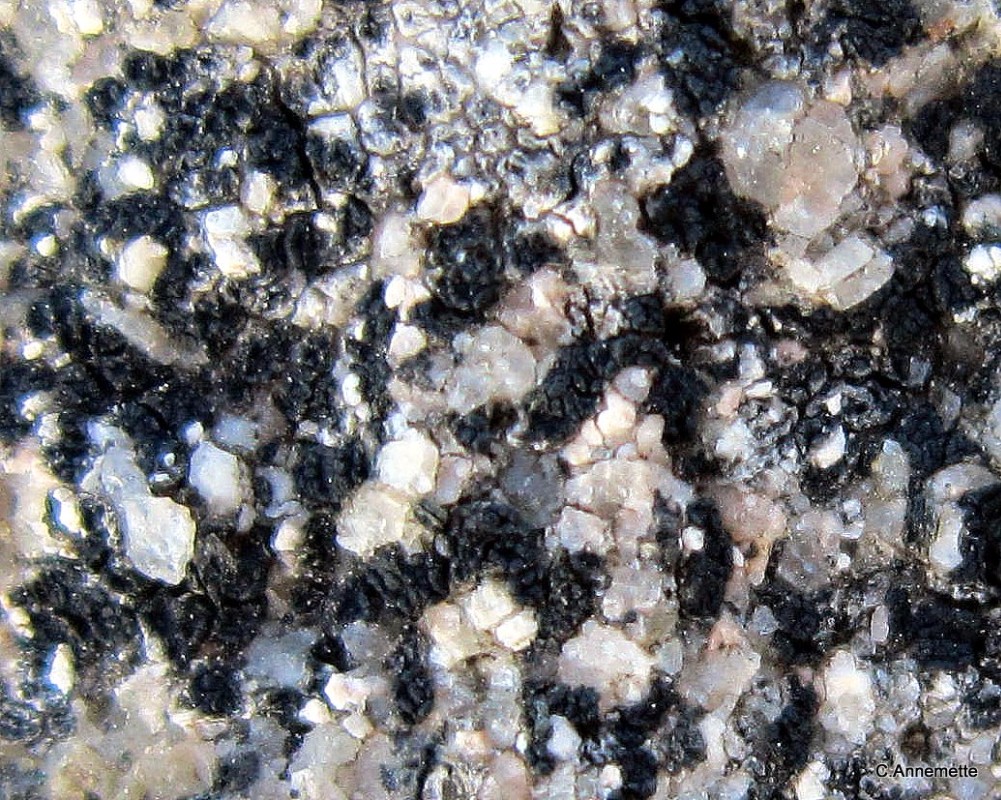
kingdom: Fungi
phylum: Ascomycota
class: Lecanoromycetes
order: Acarosporales
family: Acarosporaceae
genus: Acarospora
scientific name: Acarospora privigna
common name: sort foldekantlav
